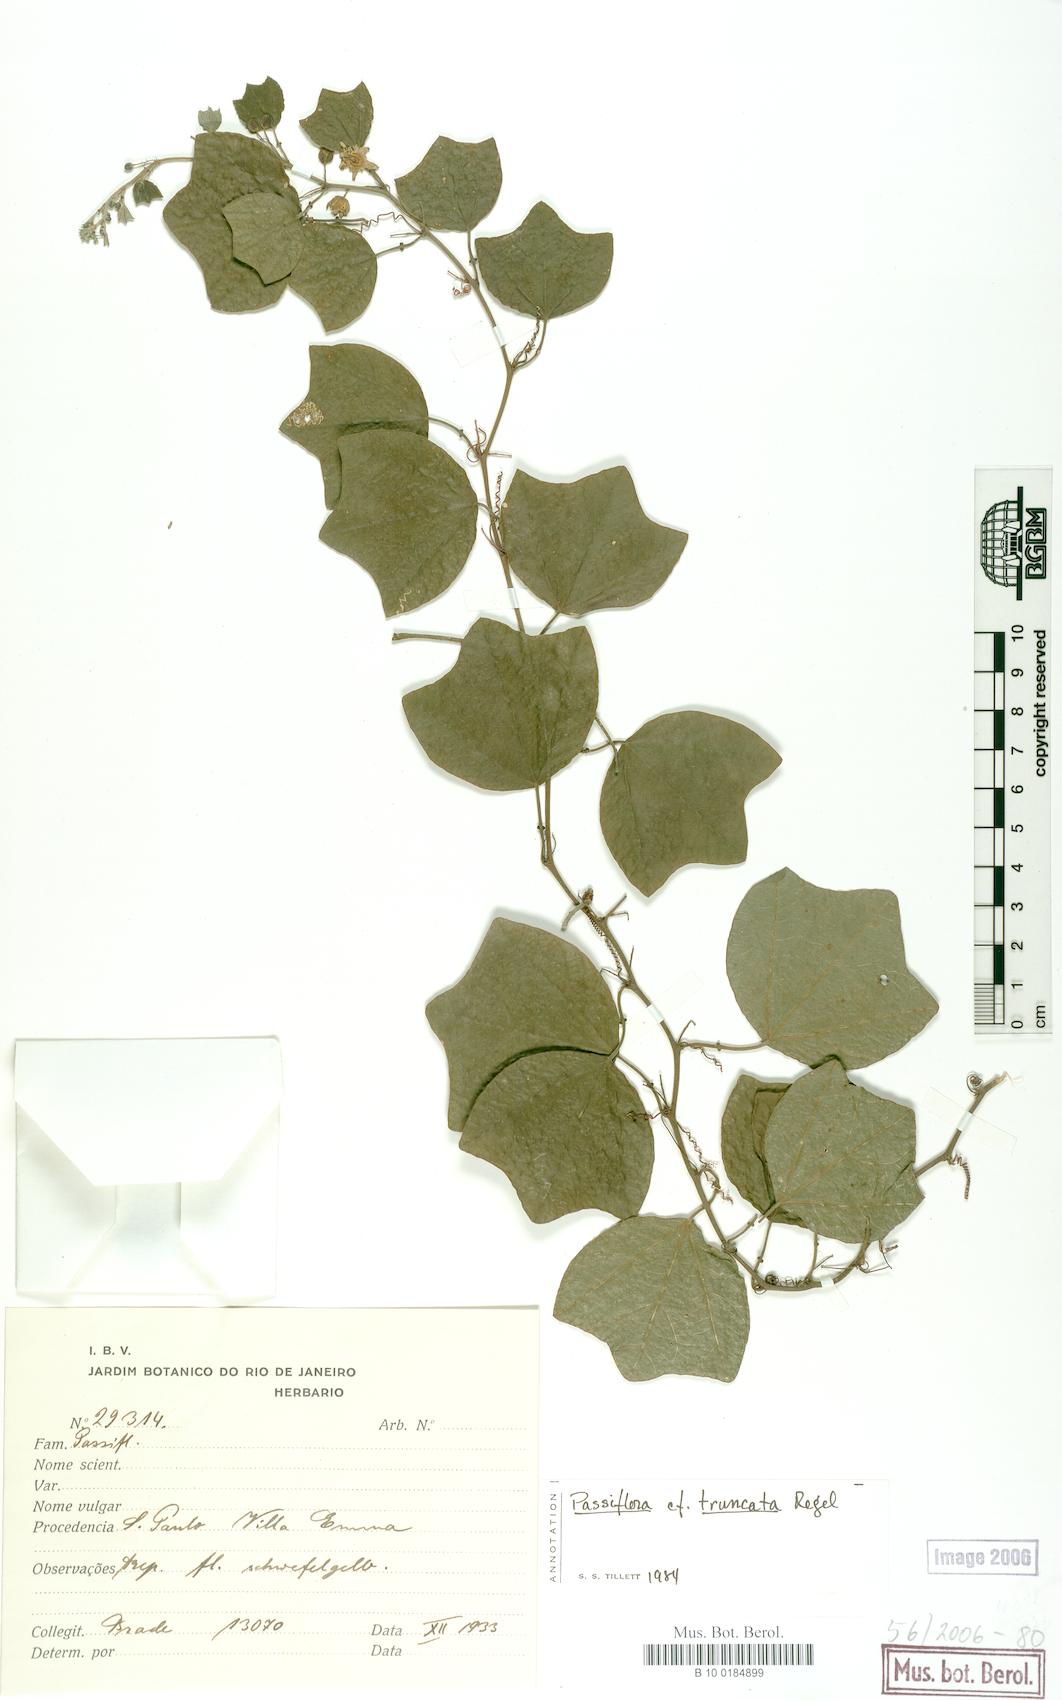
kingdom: Plantae
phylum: Tracheophyta
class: Magnoliopsida
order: Malpighiales
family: Passifloraceae
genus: Passiflora
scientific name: Passiflora truncata
